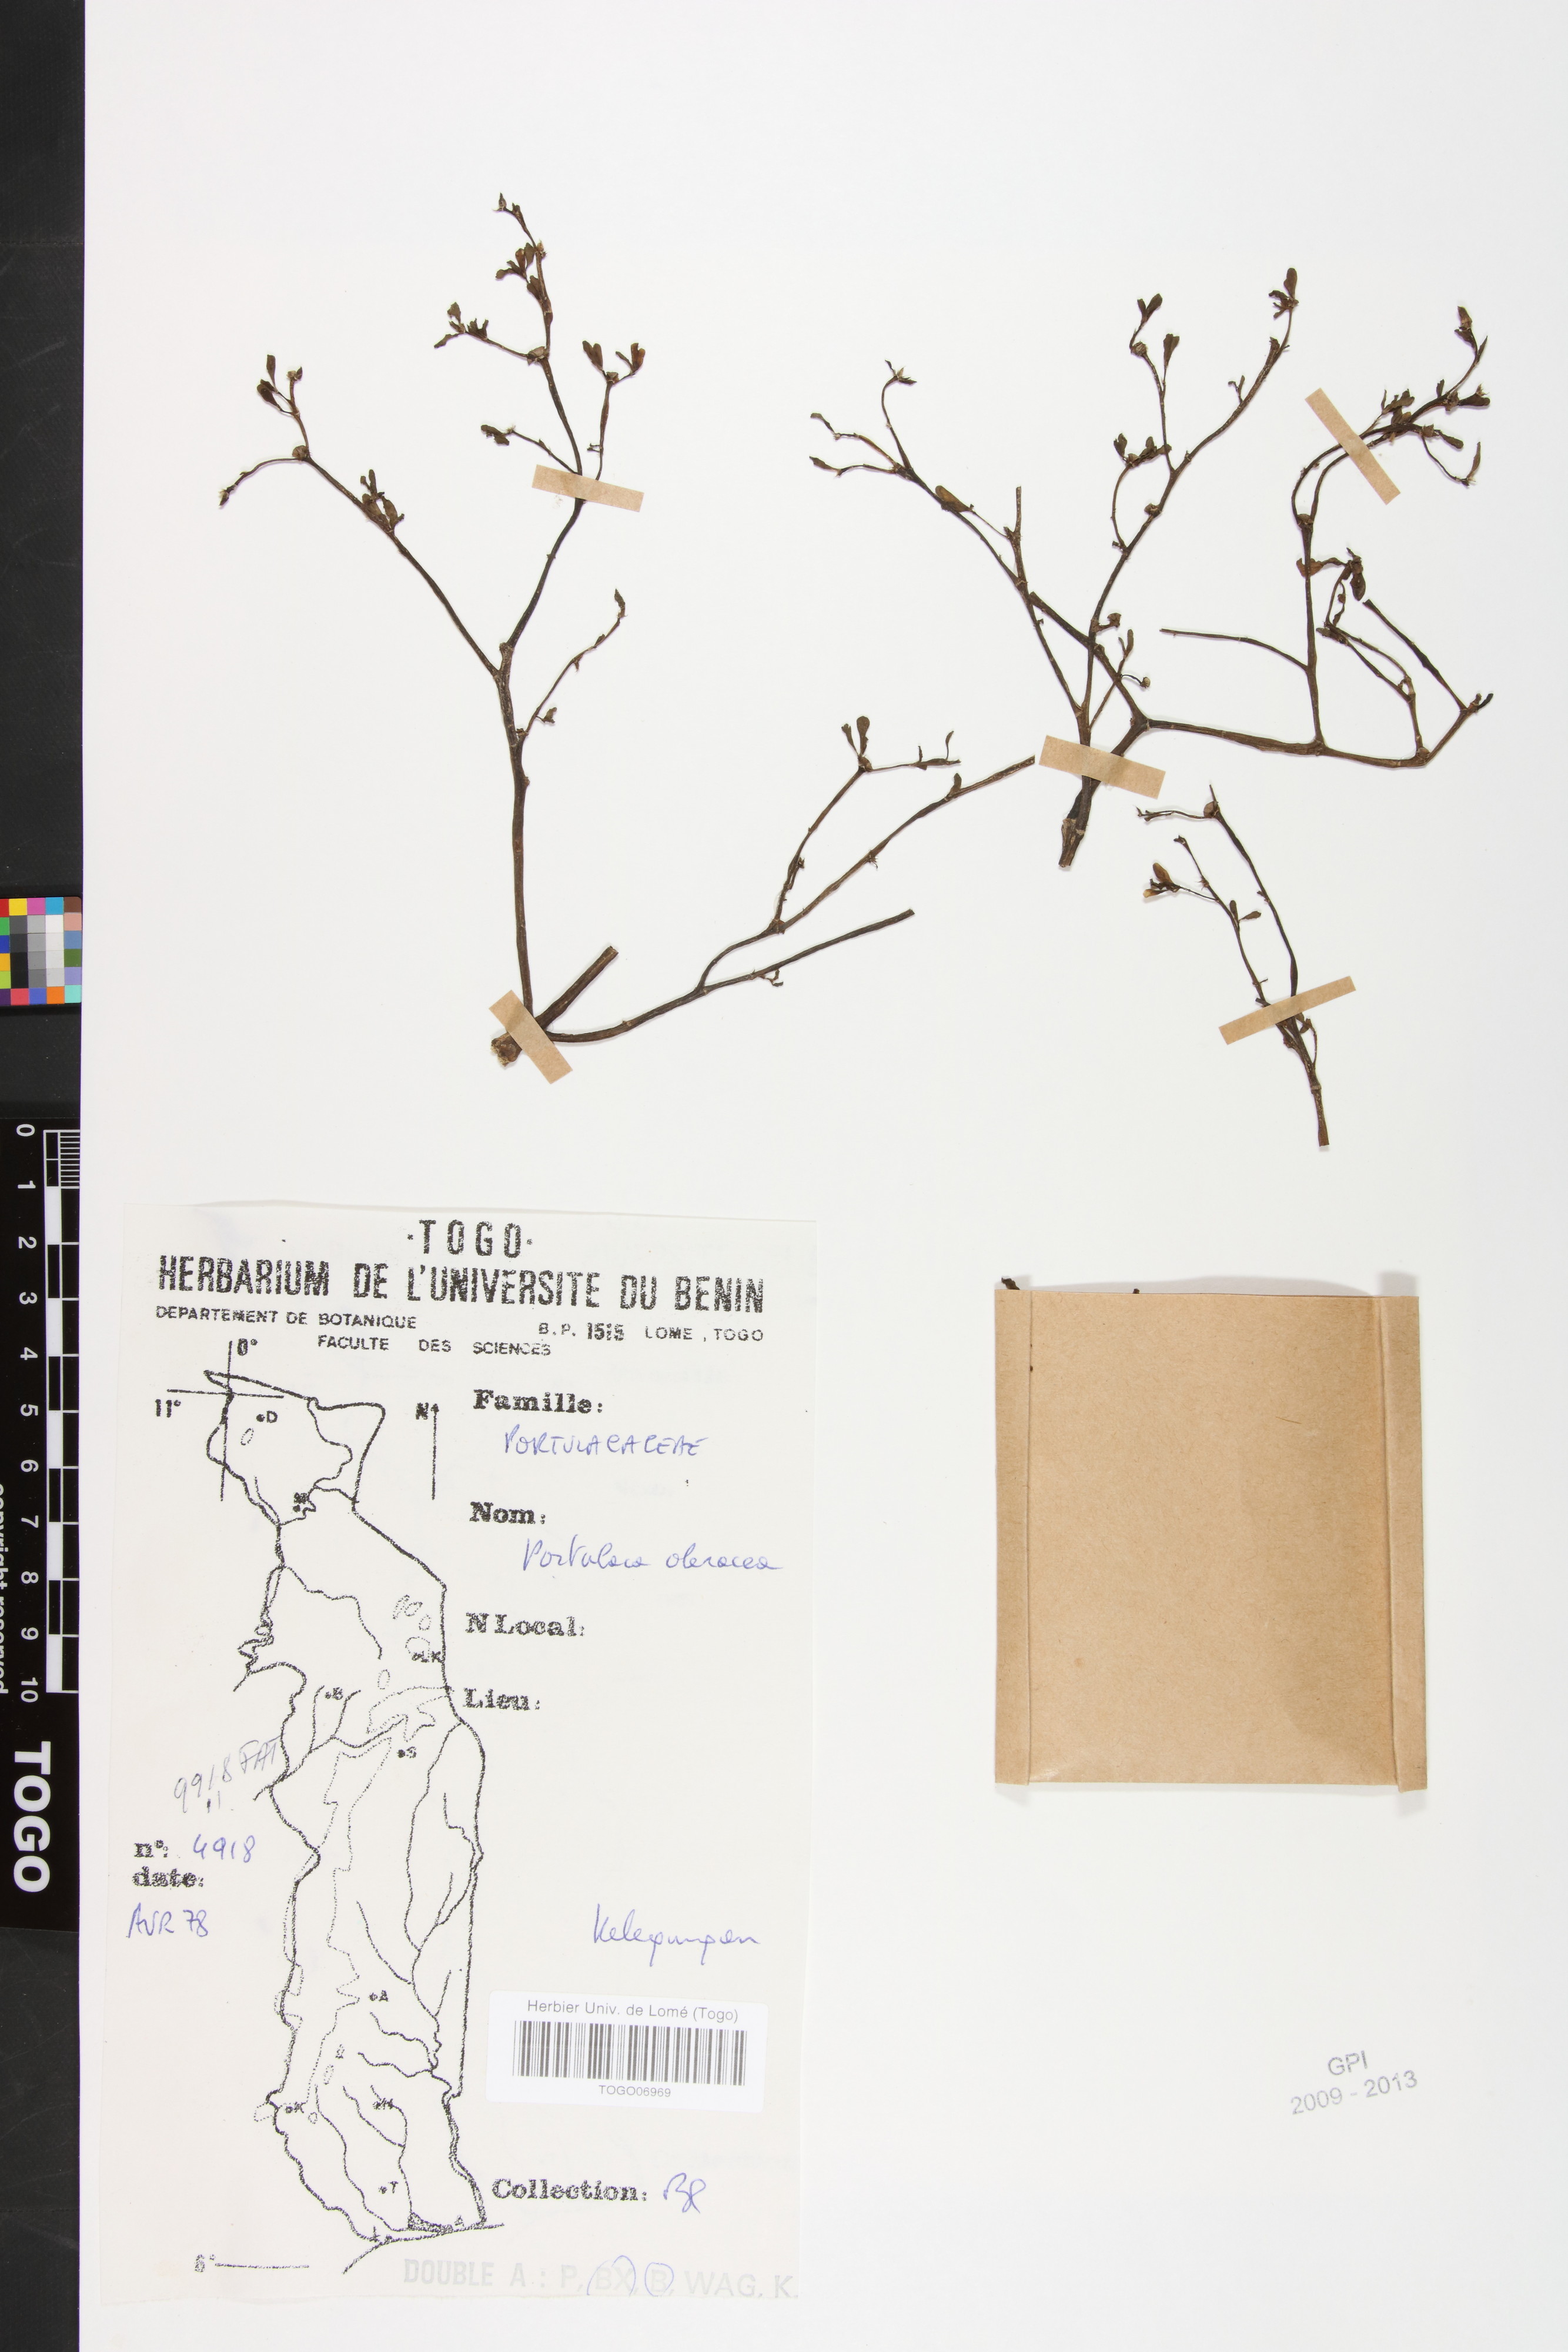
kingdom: Plantae
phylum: Tracheophyta
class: Magnoliopsida
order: Caryophyllales
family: Portulacaceae
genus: Portulaca
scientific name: Portulaca oleracea
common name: Common purslane
